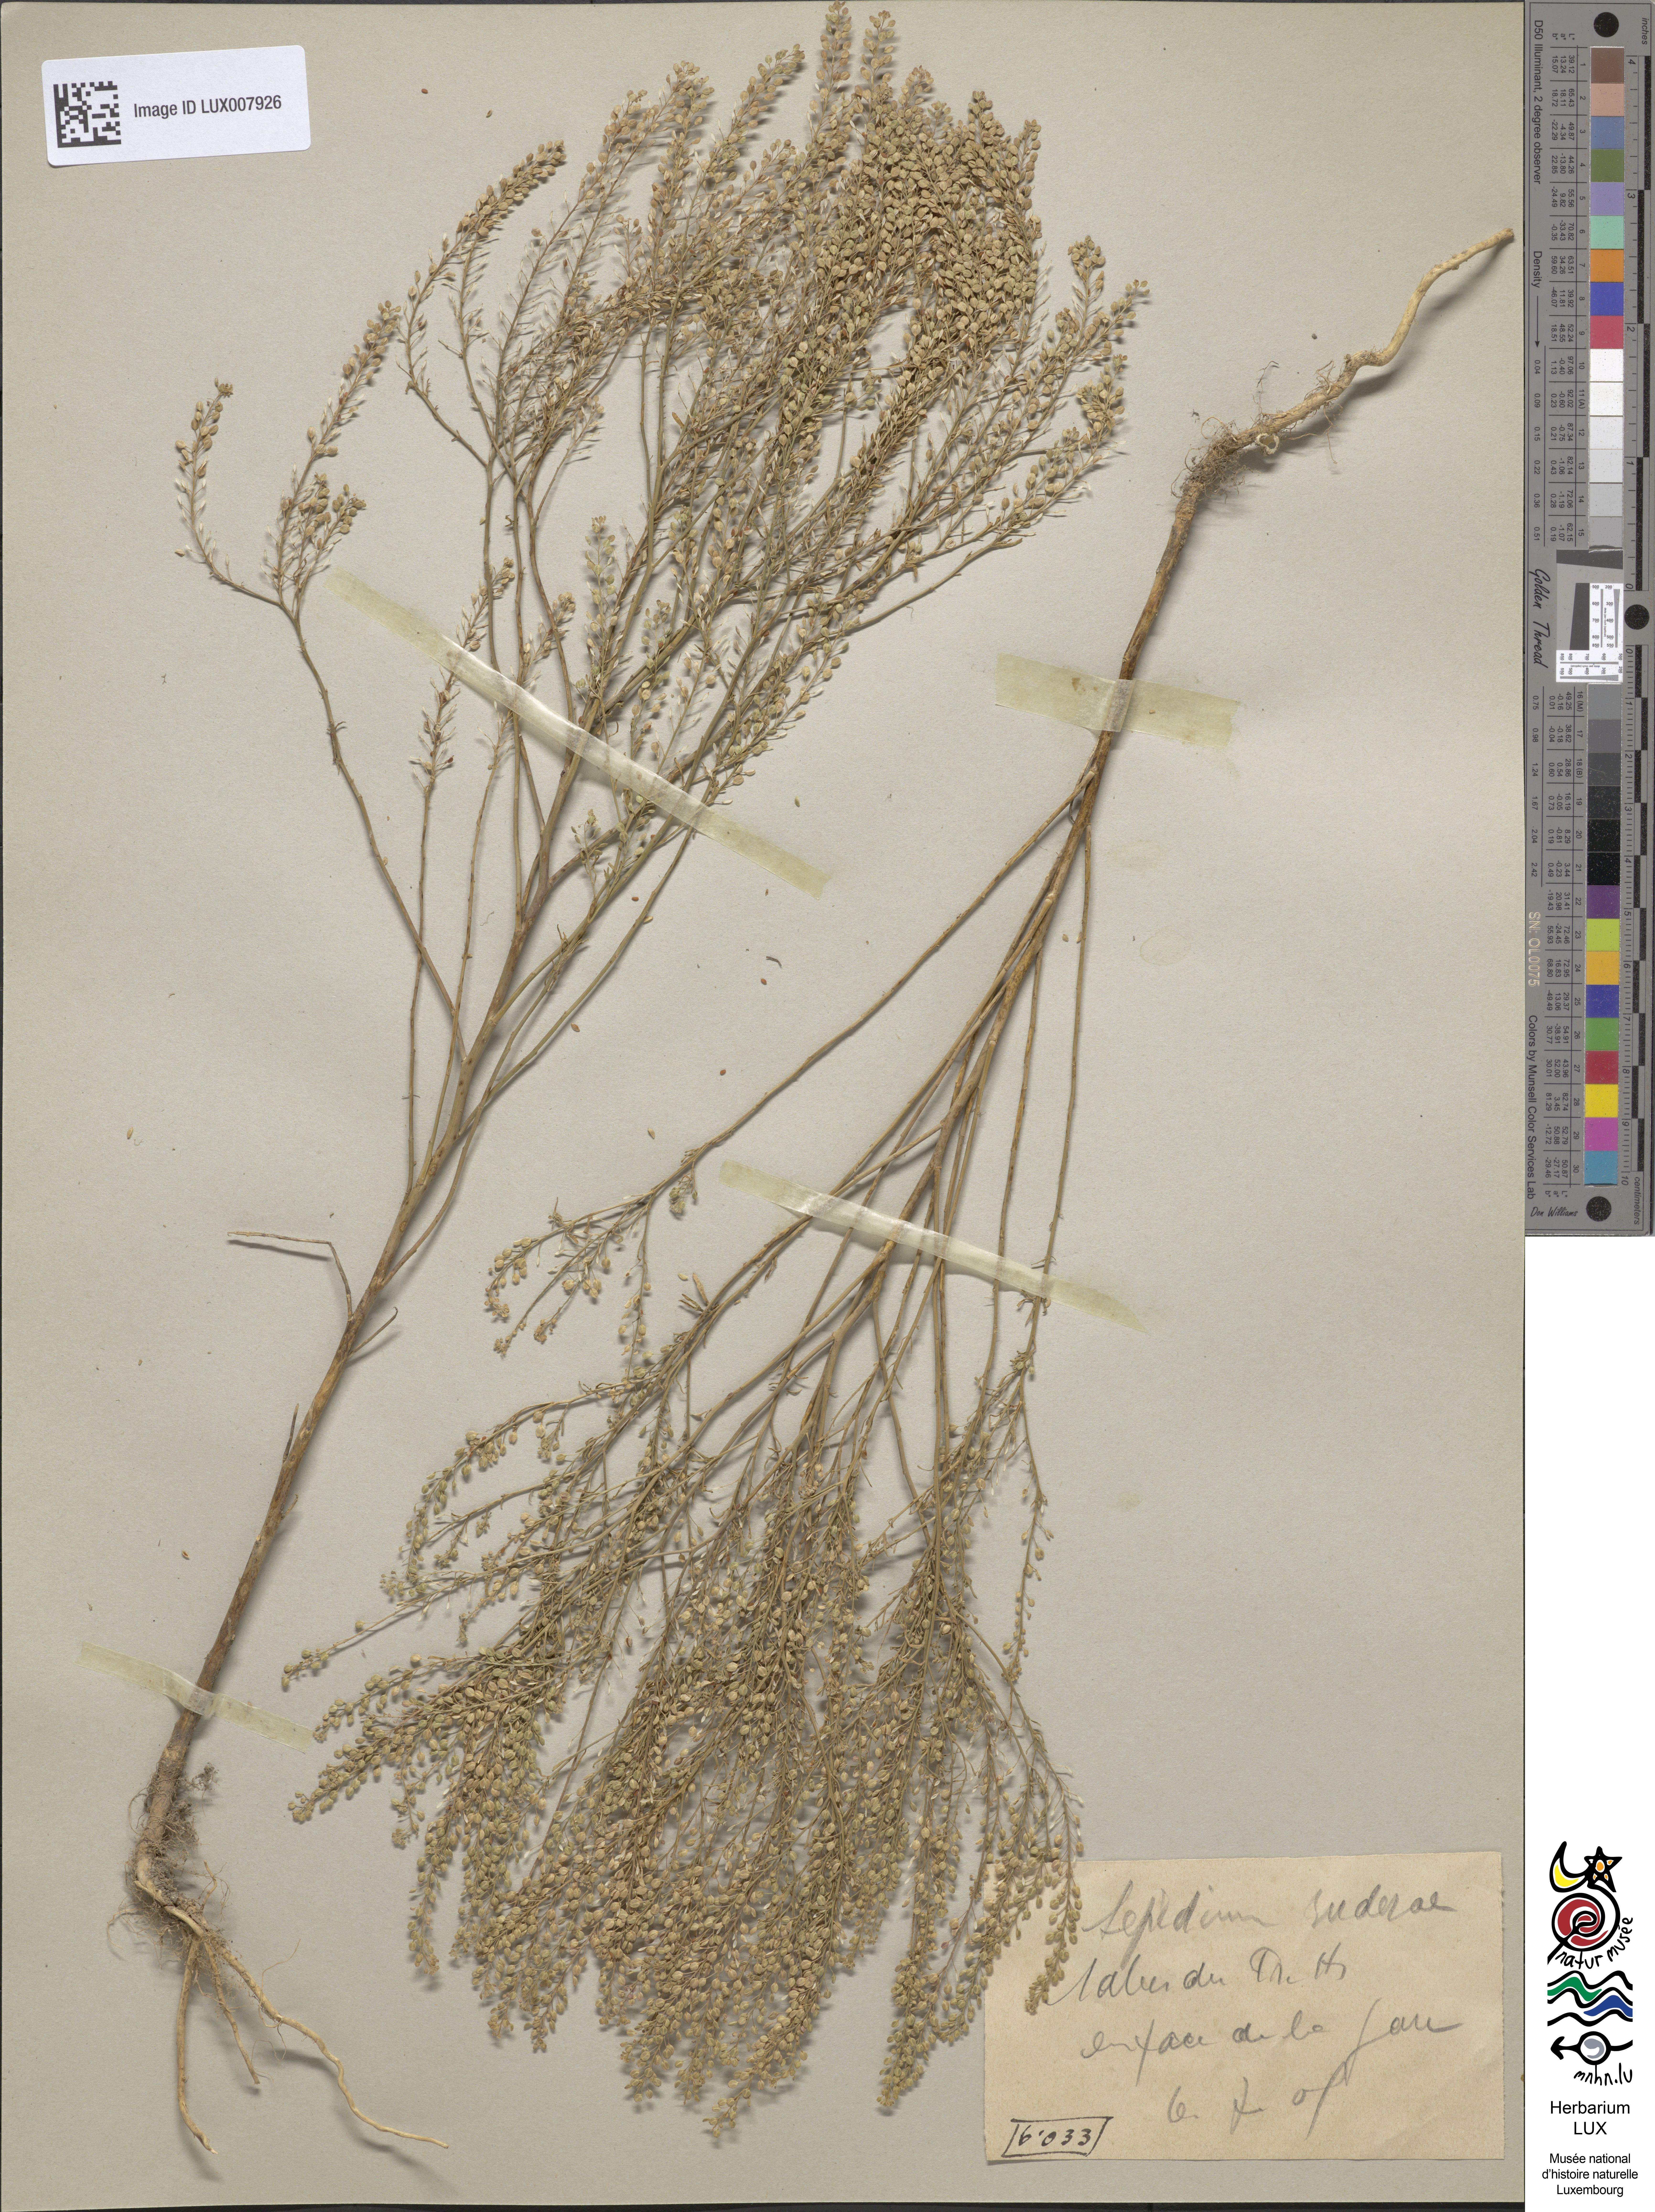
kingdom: Plantae
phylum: Tracheophyta
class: Magnoliopsida
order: Brassicales
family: Brassicaceae
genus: Lepidium
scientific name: Lepidium ruderale
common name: Narrow-leaved pepperwort
